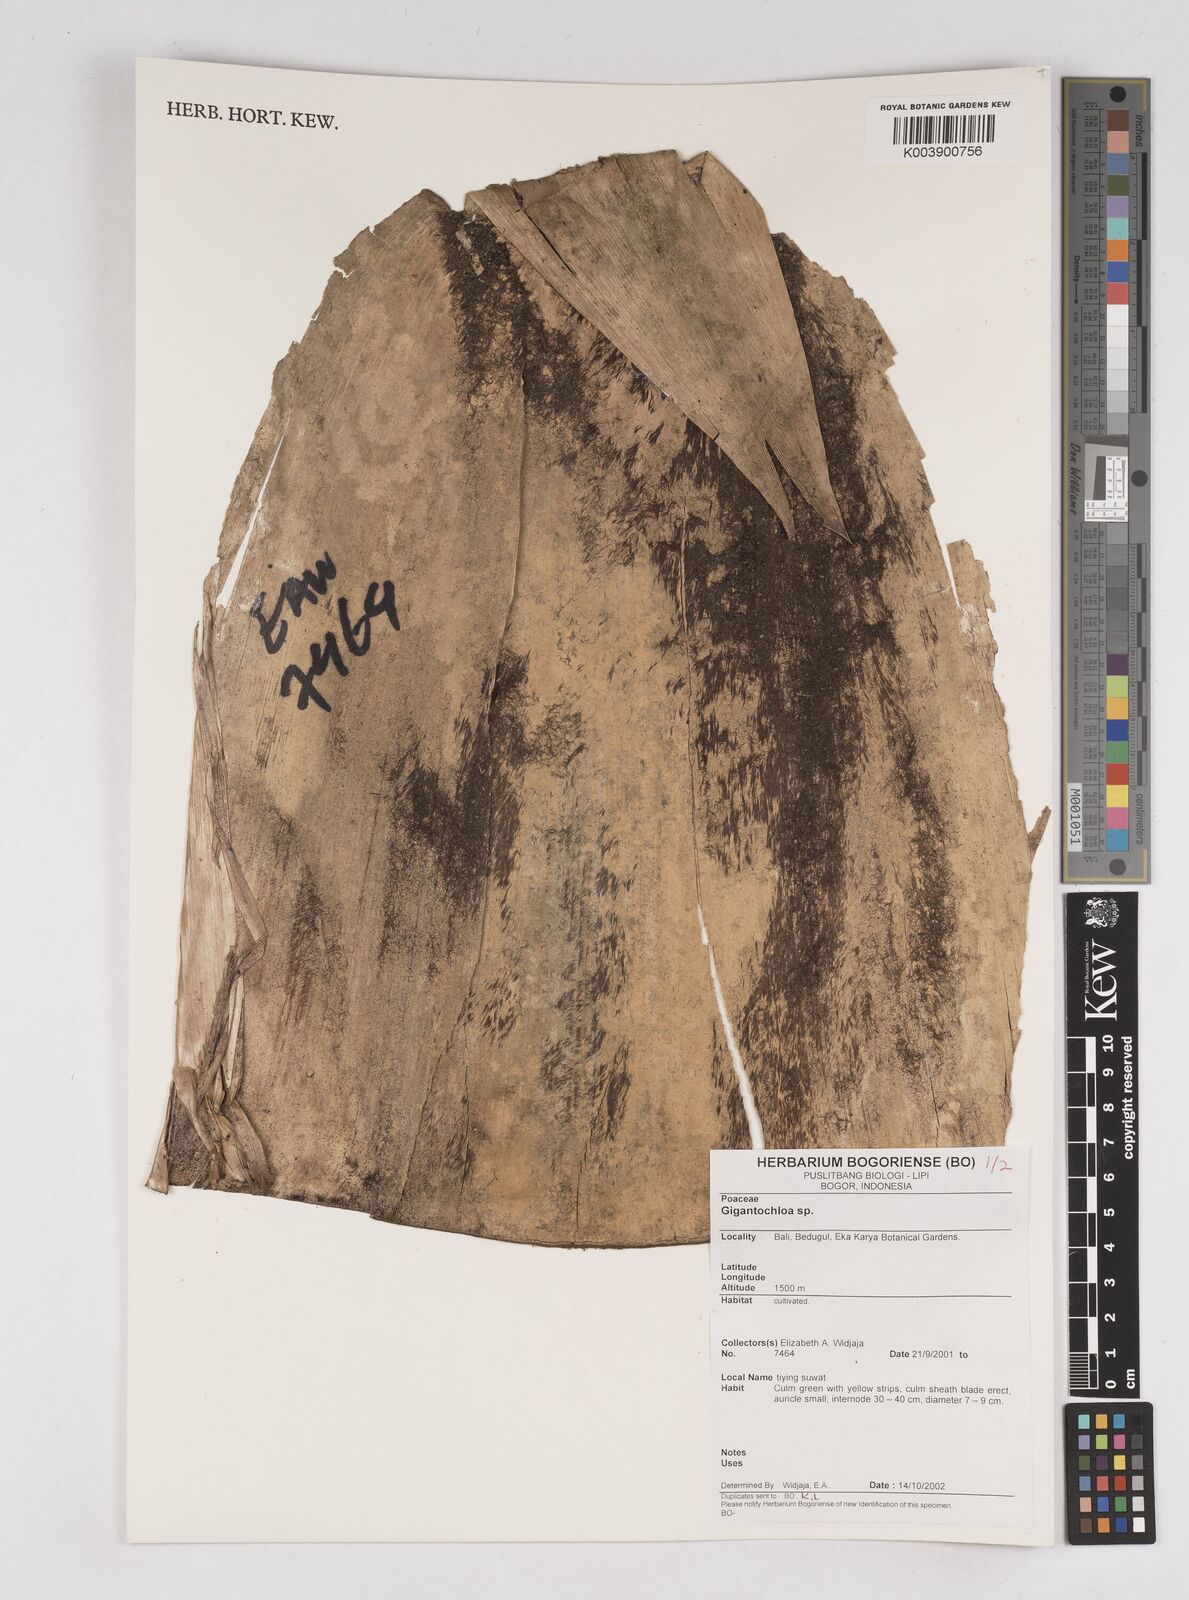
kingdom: Plantae
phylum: Tracheophyta
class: Liliopsida
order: Poales
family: Poaceae
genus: Gigantochloa
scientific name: Gigantochloa
